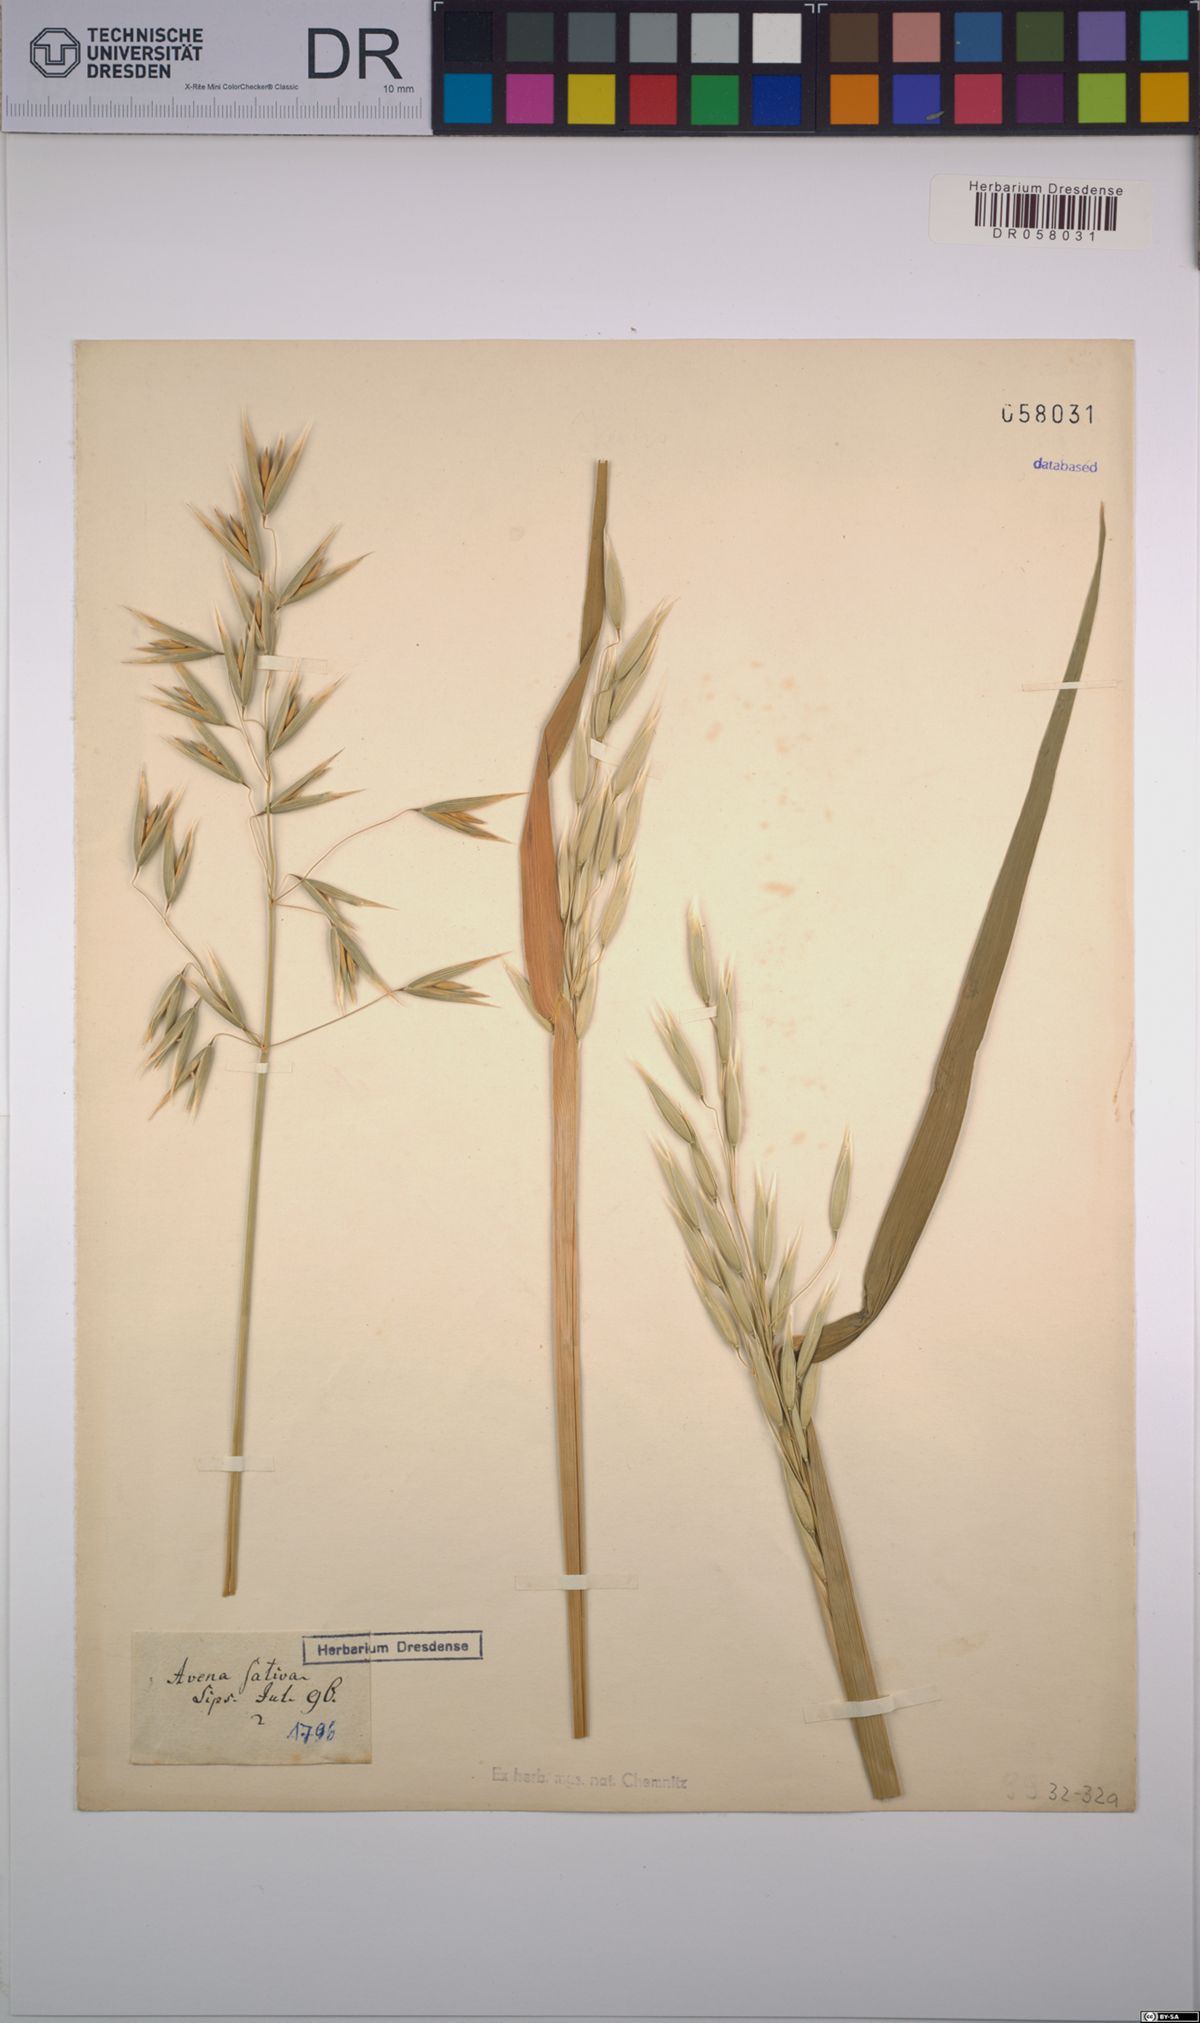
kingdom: Plantae
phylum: Tracheophyta
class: Liliopsida
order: Poales
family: Poaceae
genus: Avena
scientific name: Avena sativa
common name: Oat
